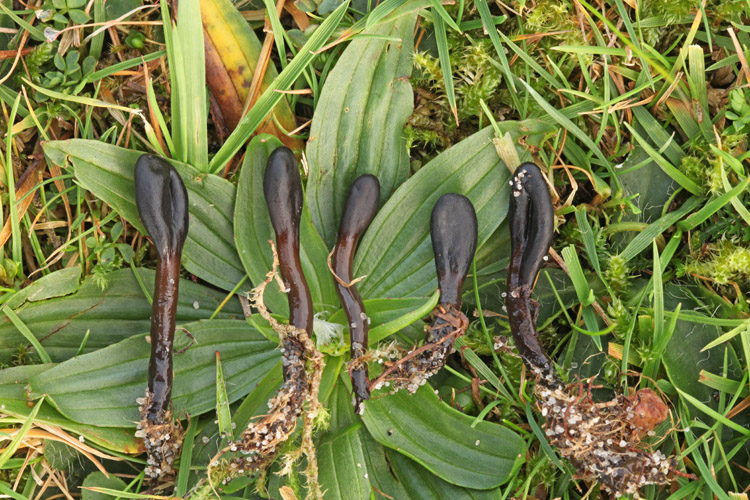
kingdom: Fungi
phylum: Ascomycota
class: Geoglossomycetes
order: Geoglossales
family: Geoglossaceae
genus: Glutinoglossum
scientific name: Glutinoglossum glutinosum
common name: slimet jordtunge
